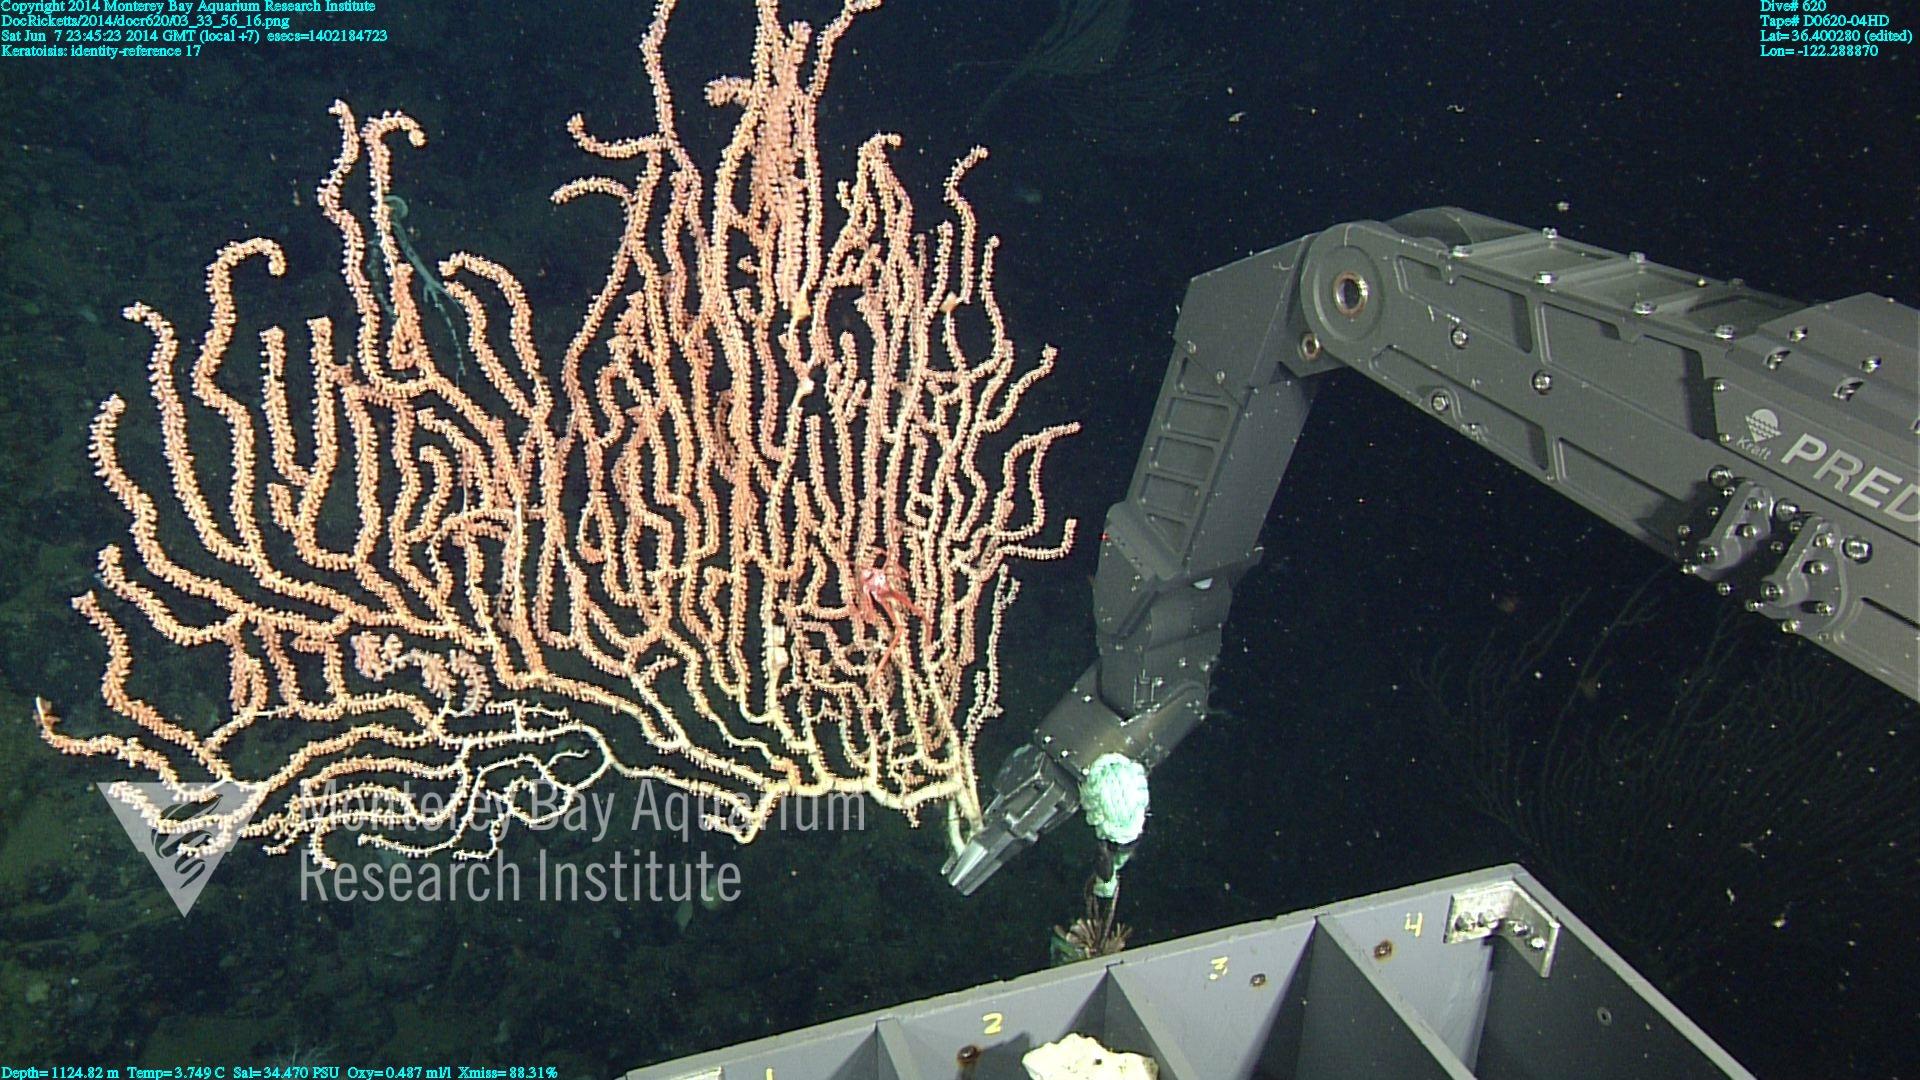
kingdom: Animalia
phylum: Cnidaria
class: Anthozoa
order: Scleralcyonacea
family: Keratoisididae
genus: Keratoisis
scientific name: Keratoisis
